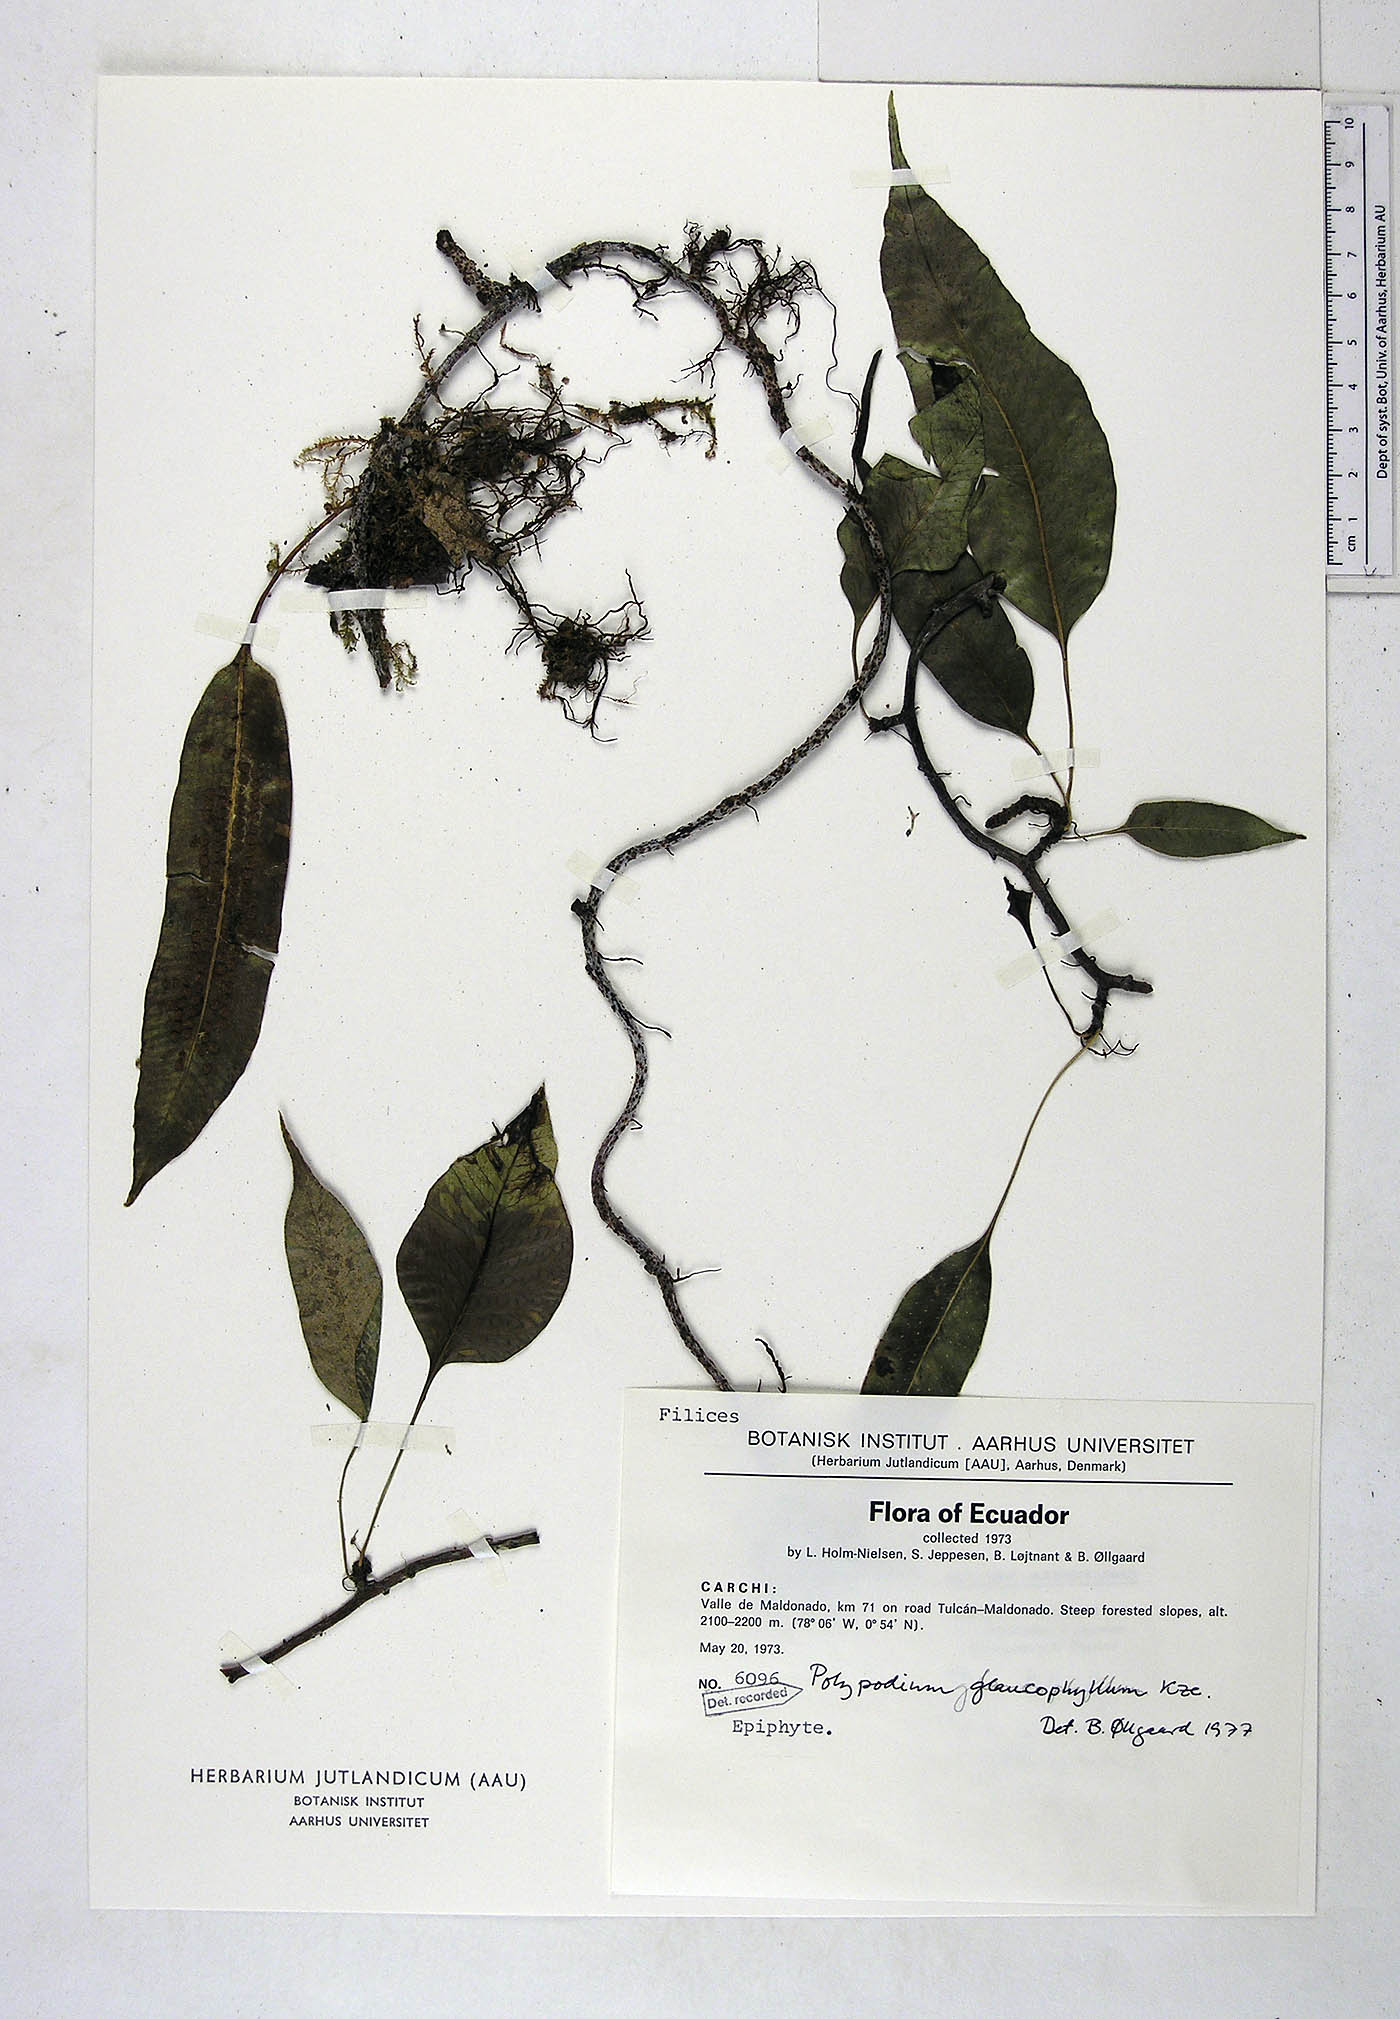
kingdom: Plantae
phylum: Tracheophyta
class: Polypodiopsida
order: Polypodiales
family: Polypodiaceae
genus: Serpocaulon
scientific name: Serpocaulon laevigatum
